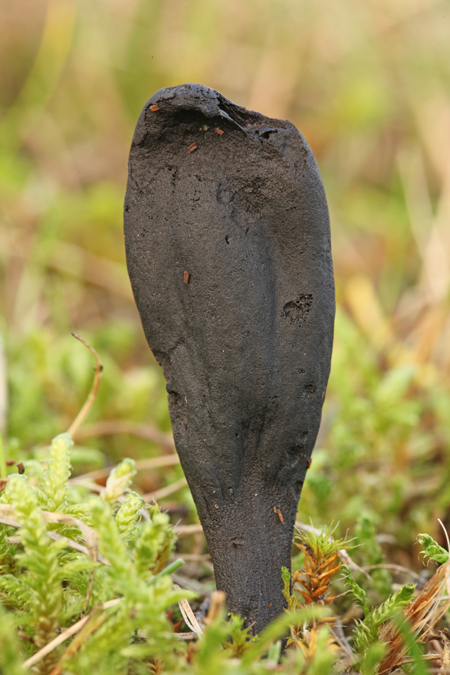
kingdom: Fungi
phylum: Ascomycota
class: Geoglossomycetes
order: Geoglossales
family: Geoglossaceae
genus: Geoglossum
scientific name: Geoglossum cookeianum
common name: bred jordtunge
